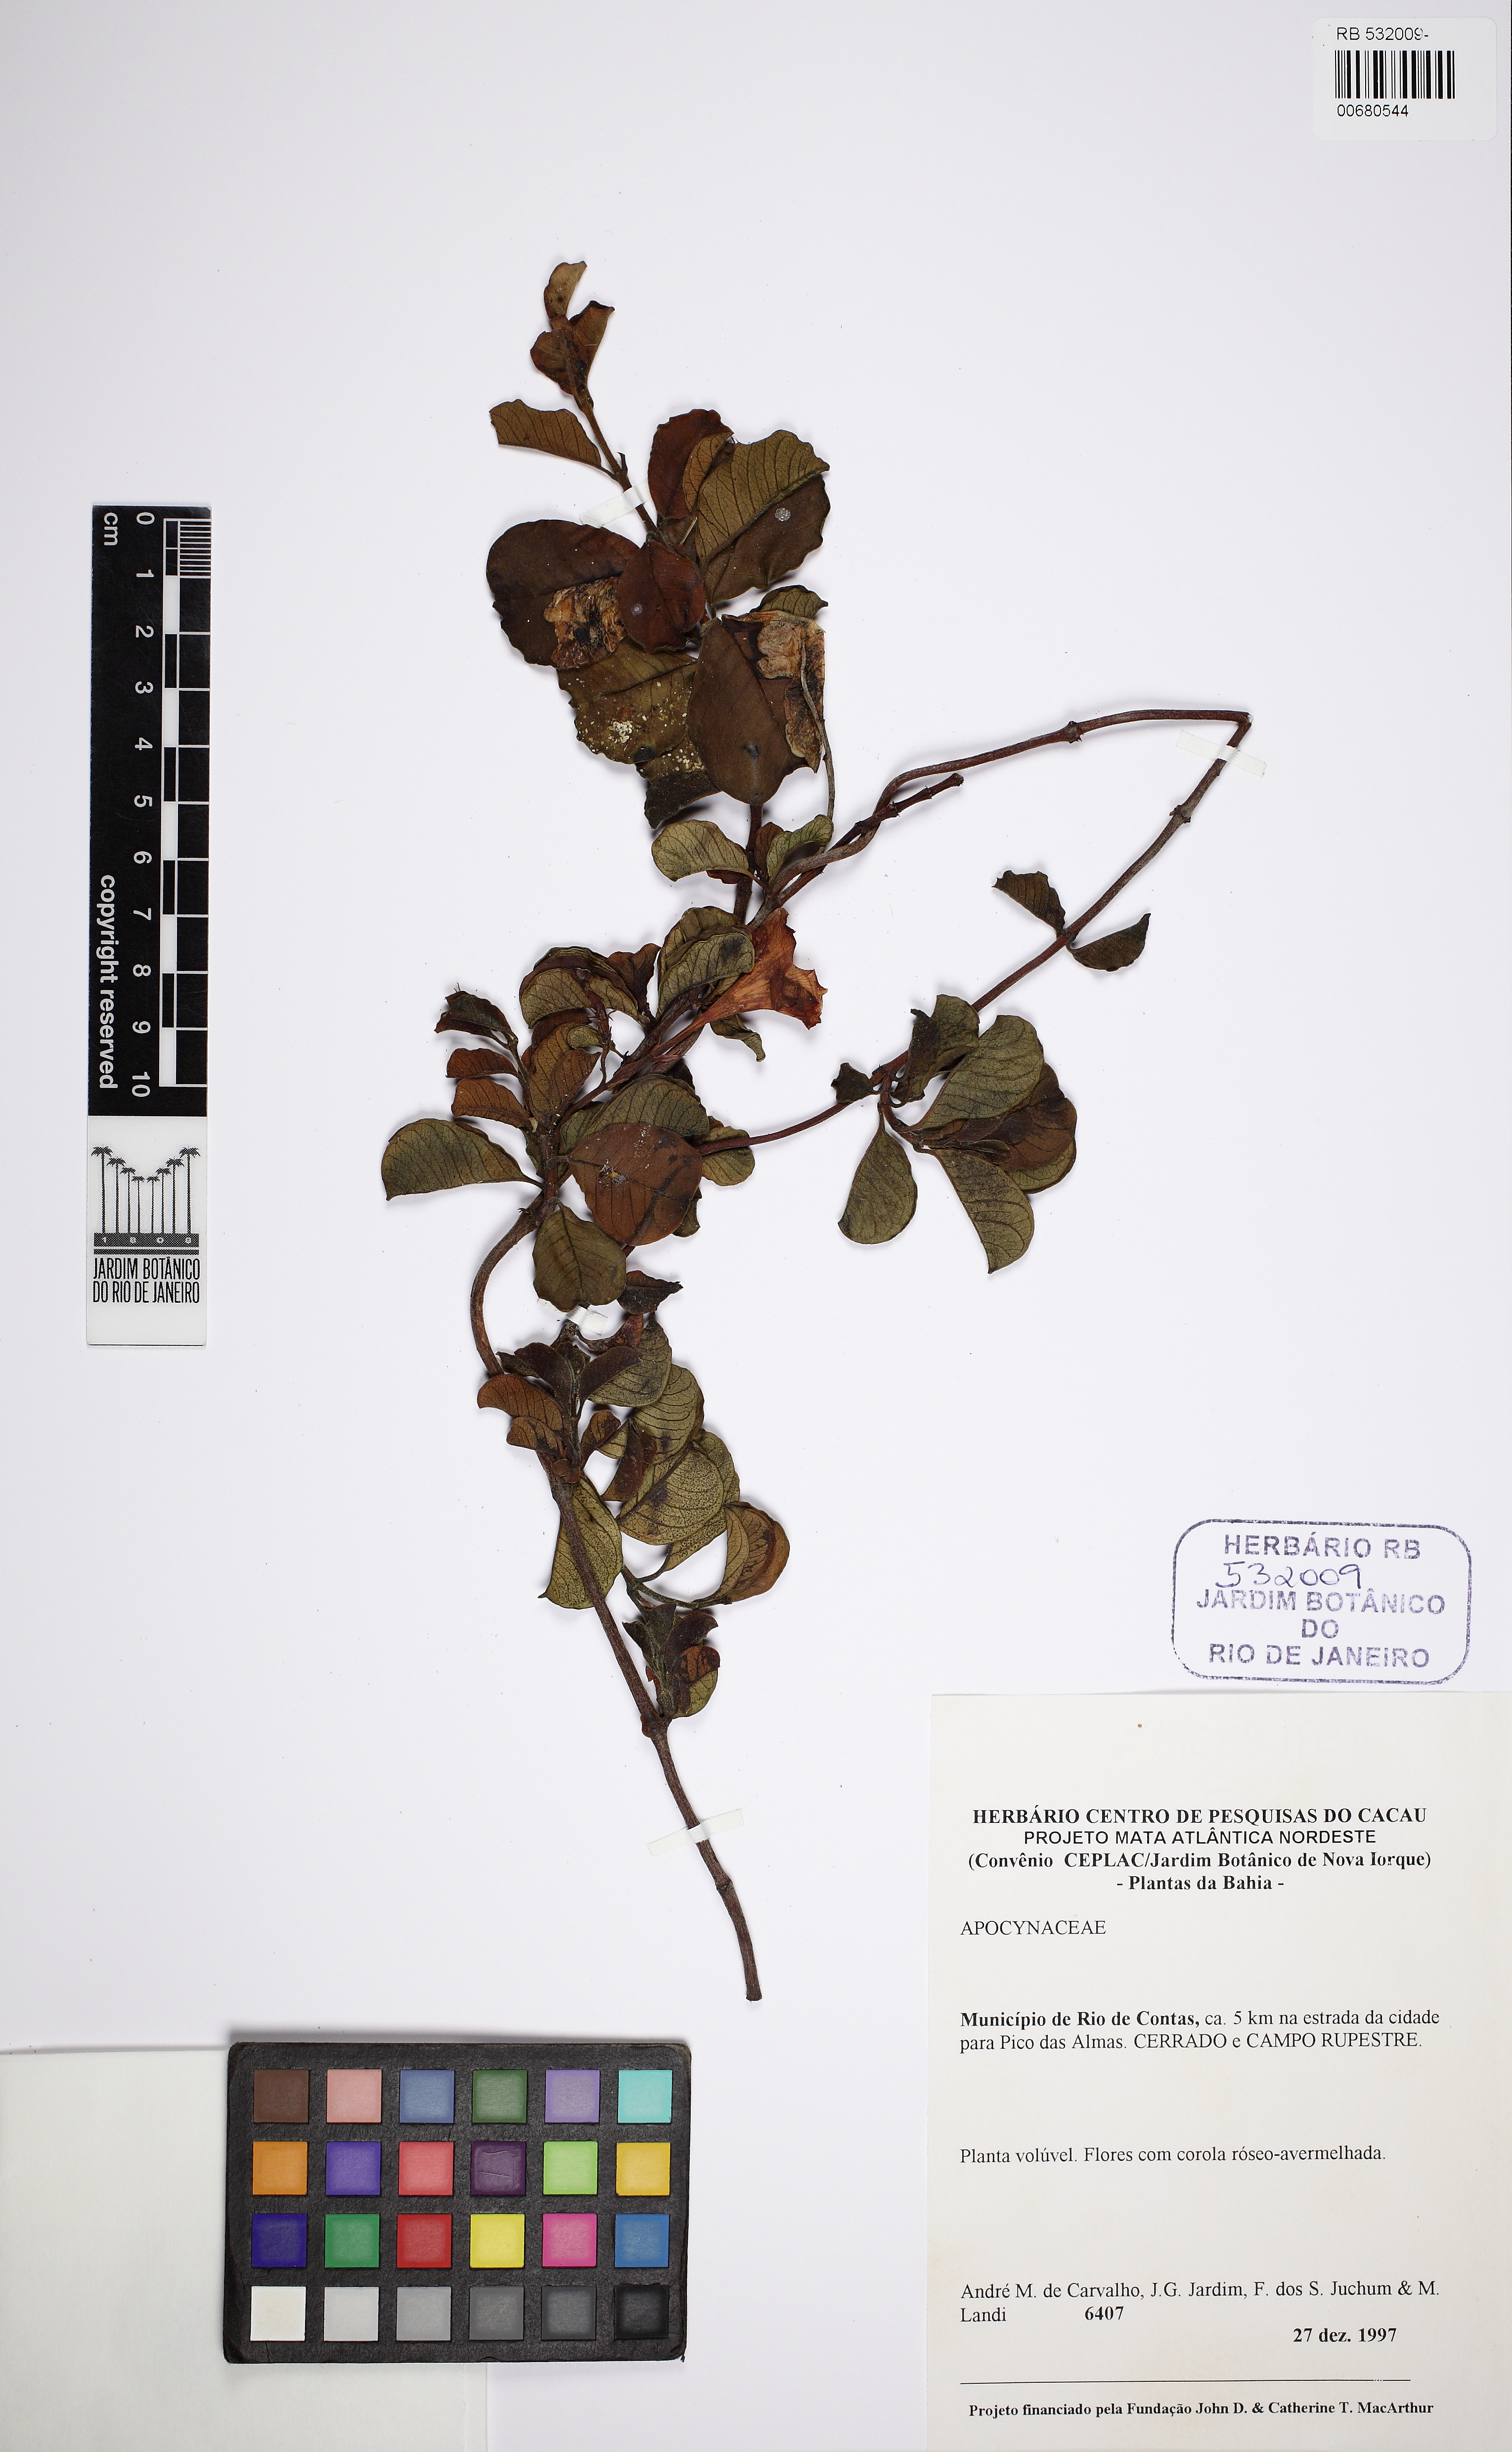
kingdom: Plantae
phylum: Tracheophyta
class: Magnoliopsida
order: Gentianales
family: Apocynaceae
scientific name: Apocynaceae
